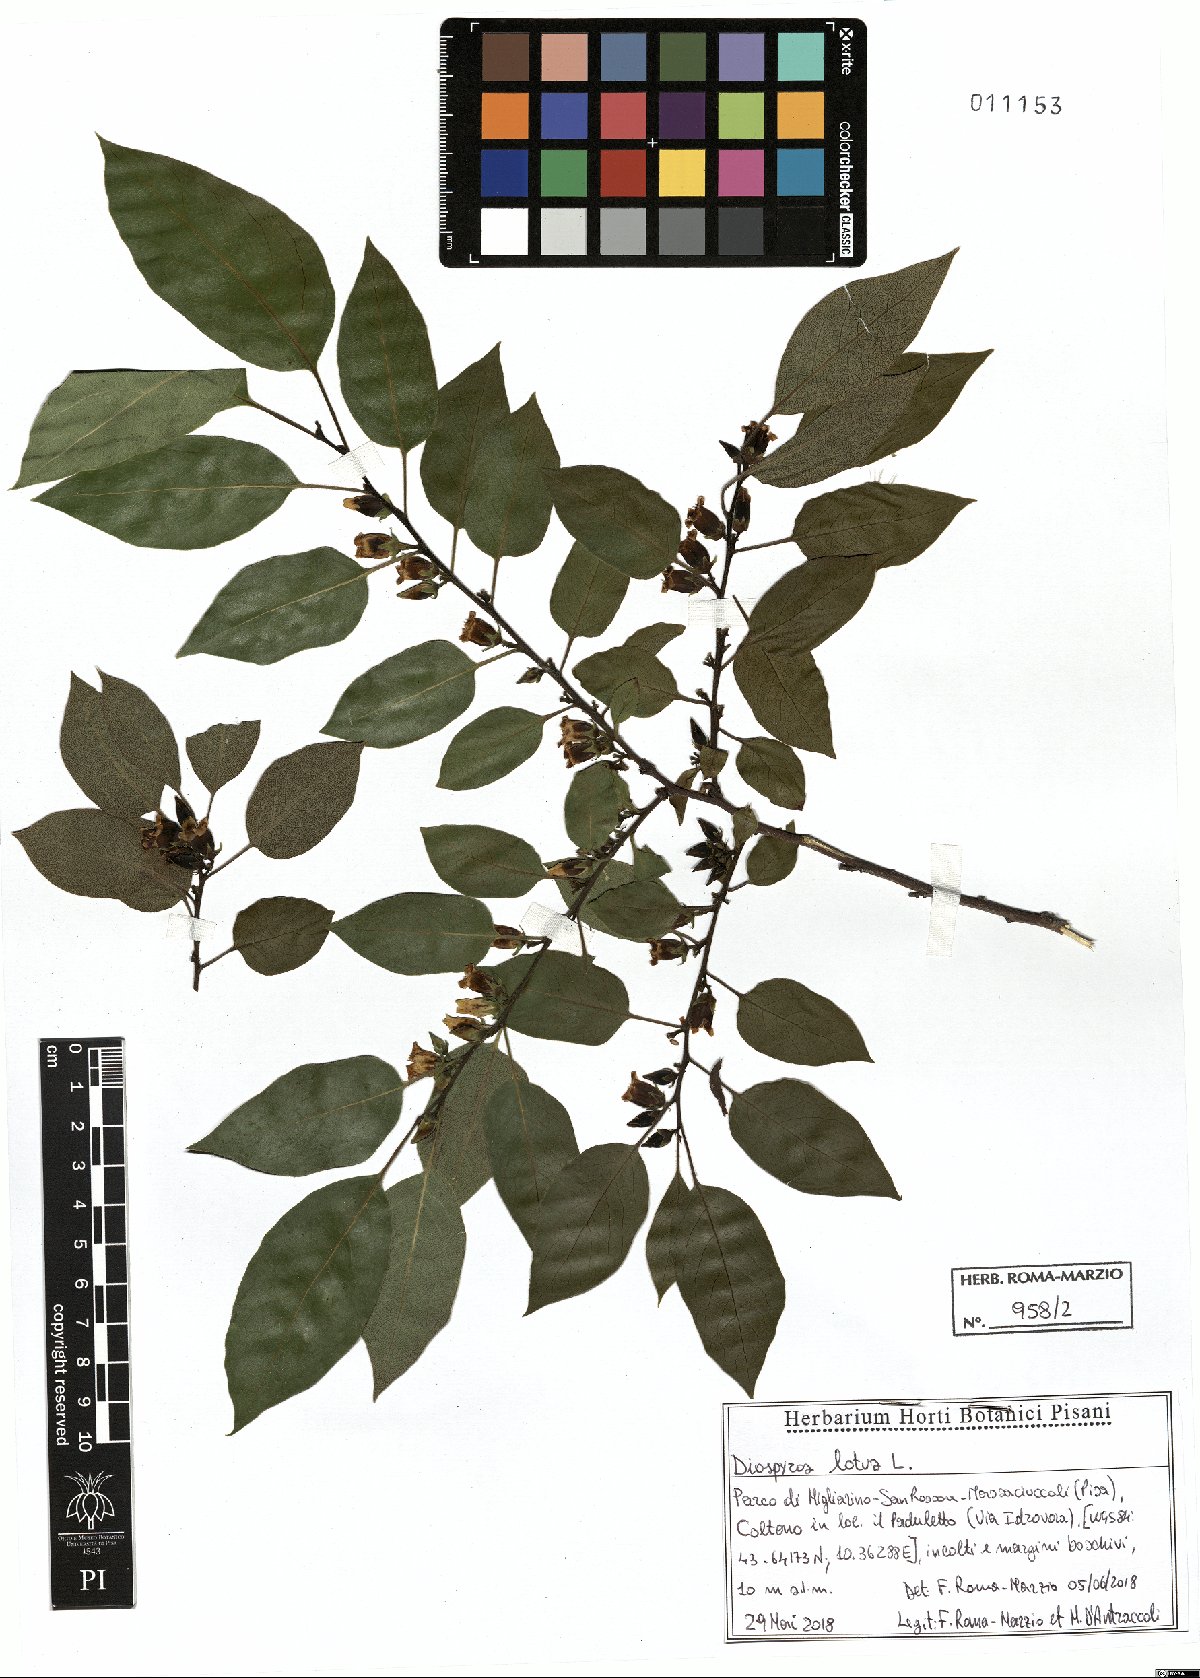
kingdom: Plantae
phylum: Tracheophyta
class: Magnoliopsida
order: Ericales
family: Ebenaceae
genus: Diospyros
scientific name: Diospyros lotus
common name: Date-plum
